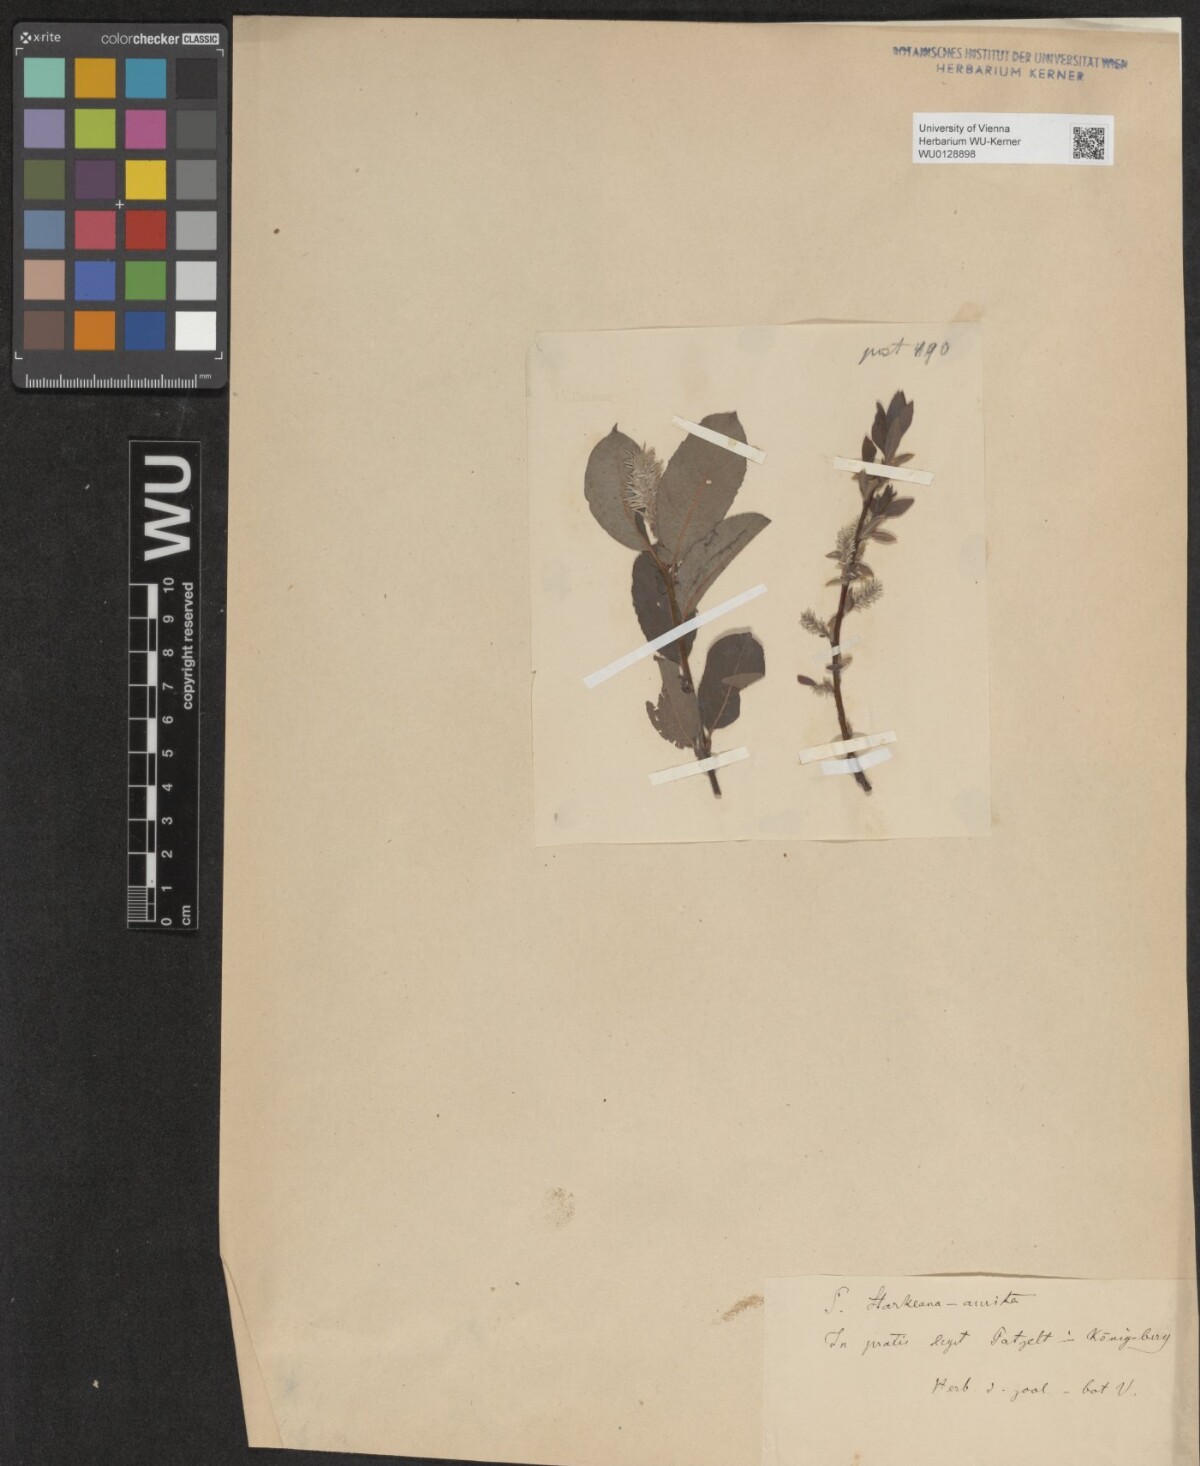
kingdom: Plantae
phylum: Tracheophyta
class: Magnoliopsida
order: Malpighiales
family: Salicaceae
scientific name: Salicaceae
